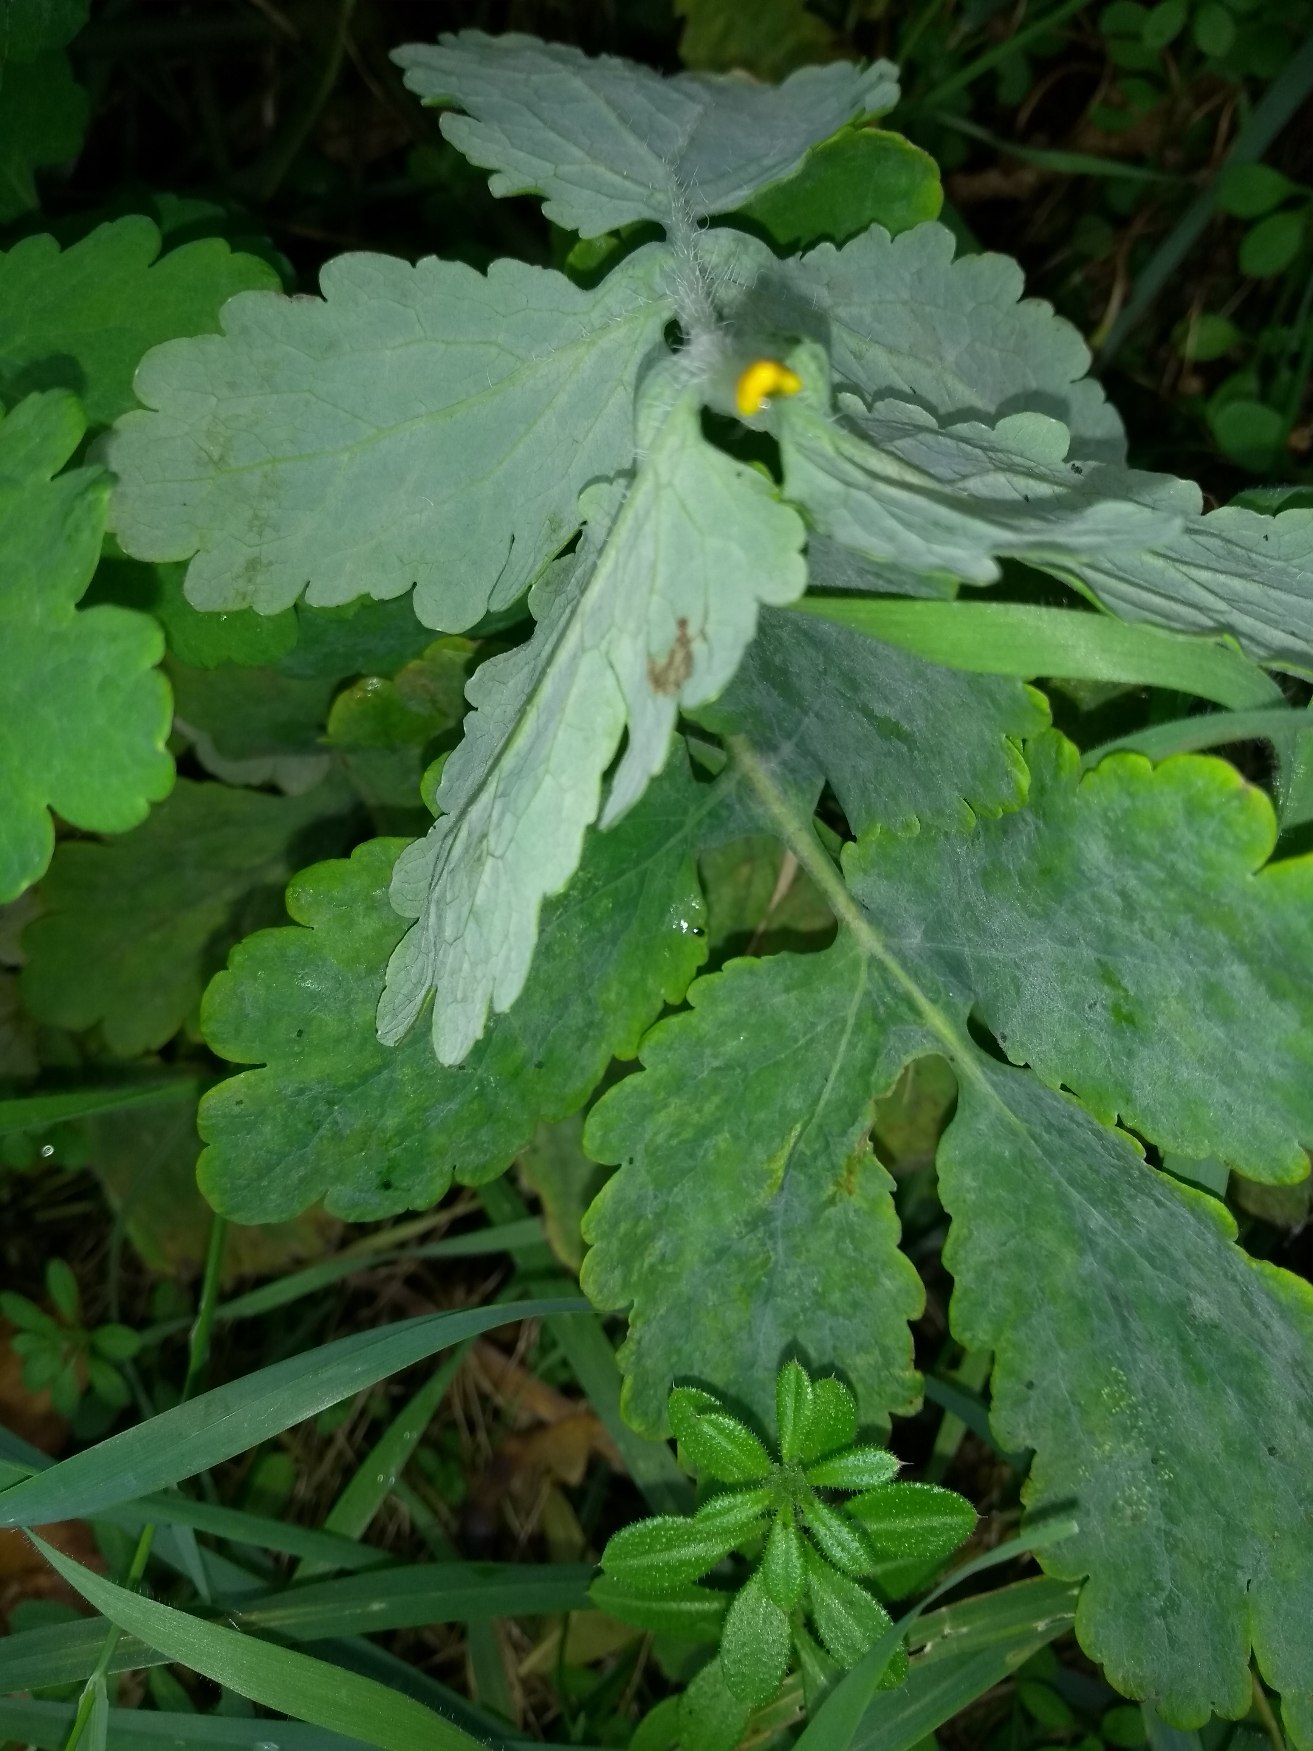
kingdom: Plantae
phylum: Tracheophyta
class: Magnoliopsida
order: Ranunculales
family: Papaveraceae
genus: Chelidonium
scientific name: Chelidonium majus
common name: Svaleurt
